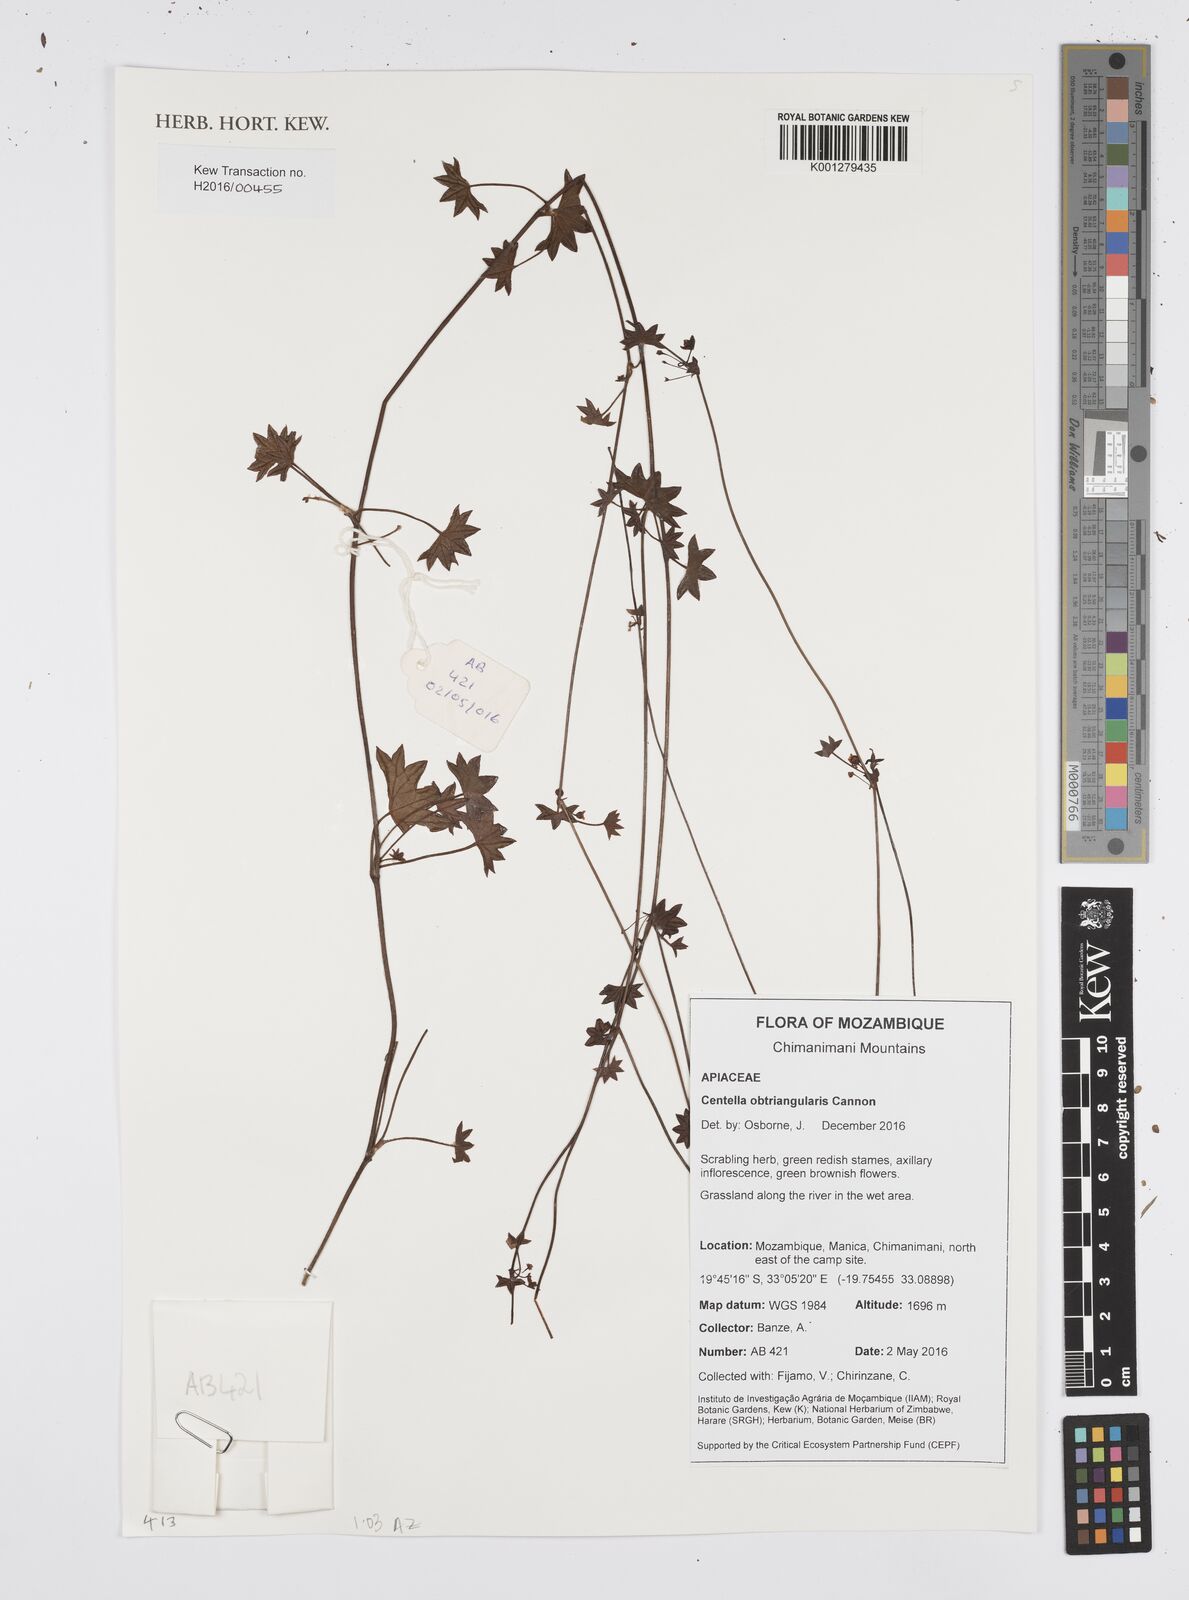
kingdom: Plantae
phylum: Tracheophyta
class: Magnoliopsida
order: Apiales
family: Apiaceae
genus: Centella
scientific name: Centella obtriangularis
